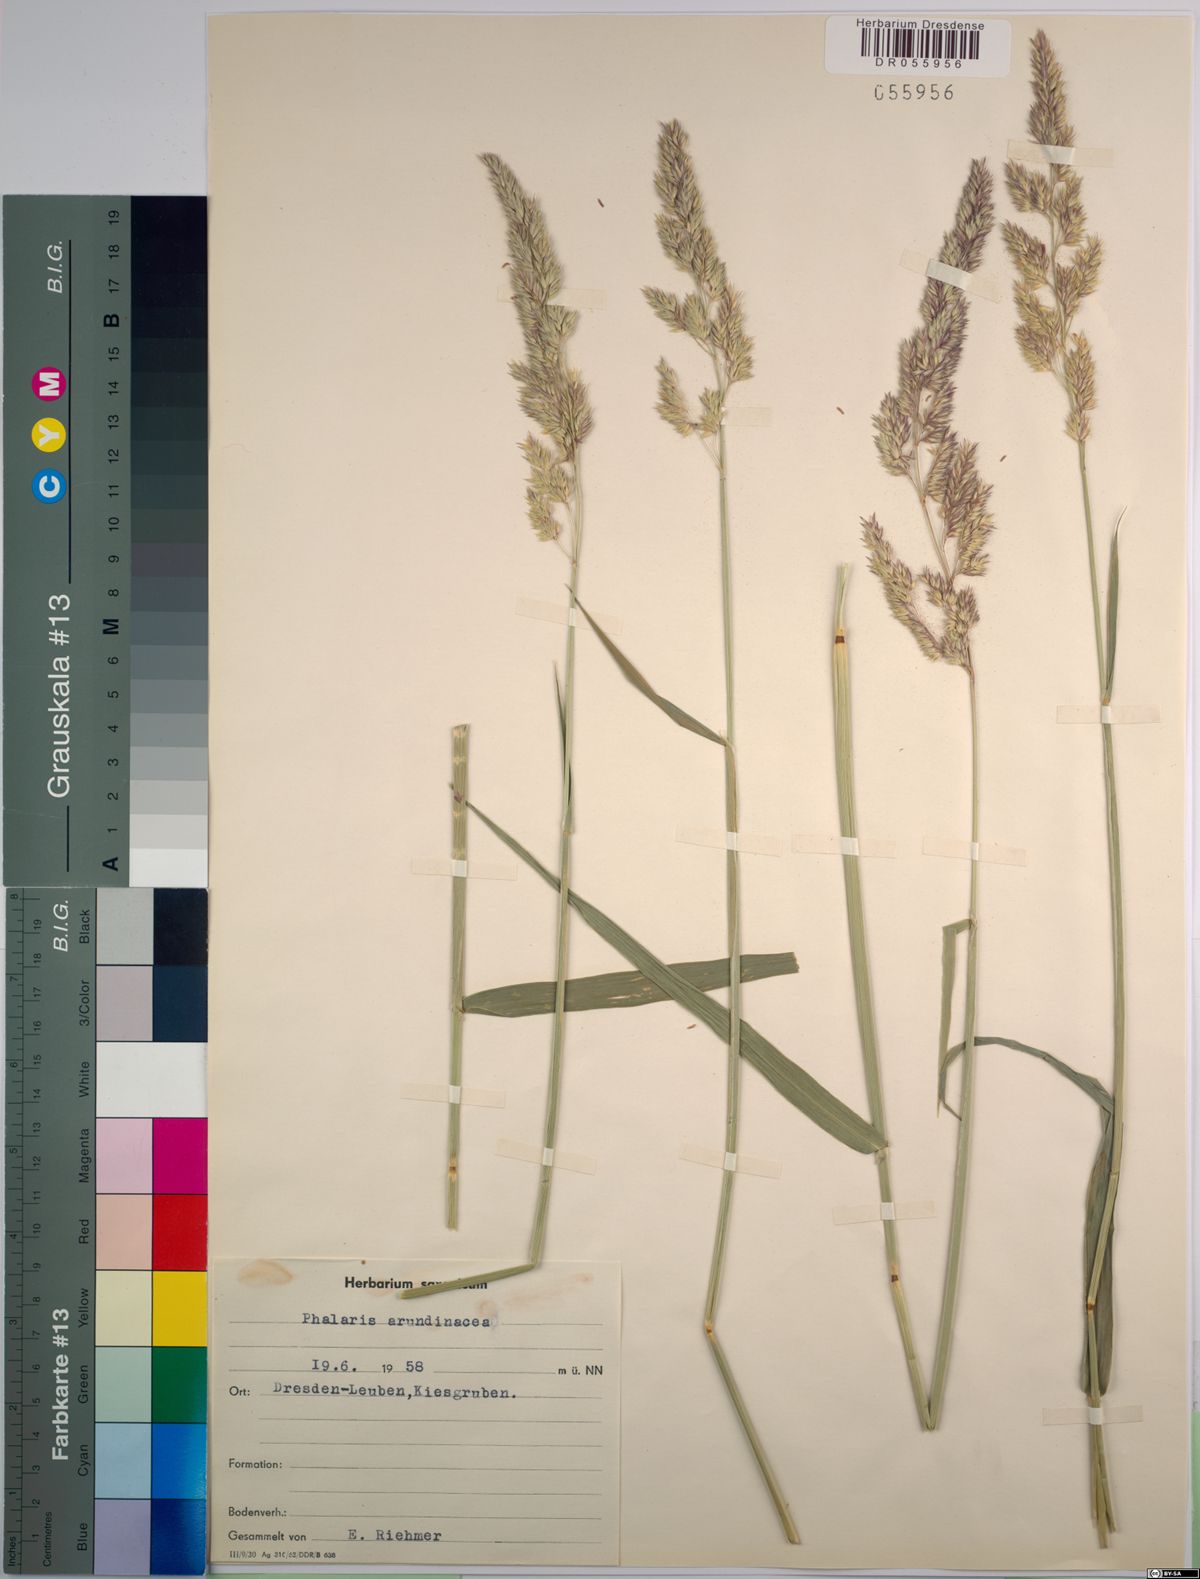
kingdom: Plantae
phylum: Tracheophyta
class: Liliopsida
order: Poales
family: Poaceae
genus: Phalaris
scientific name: Phalaris arundinacea
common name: Reed canary-grass
